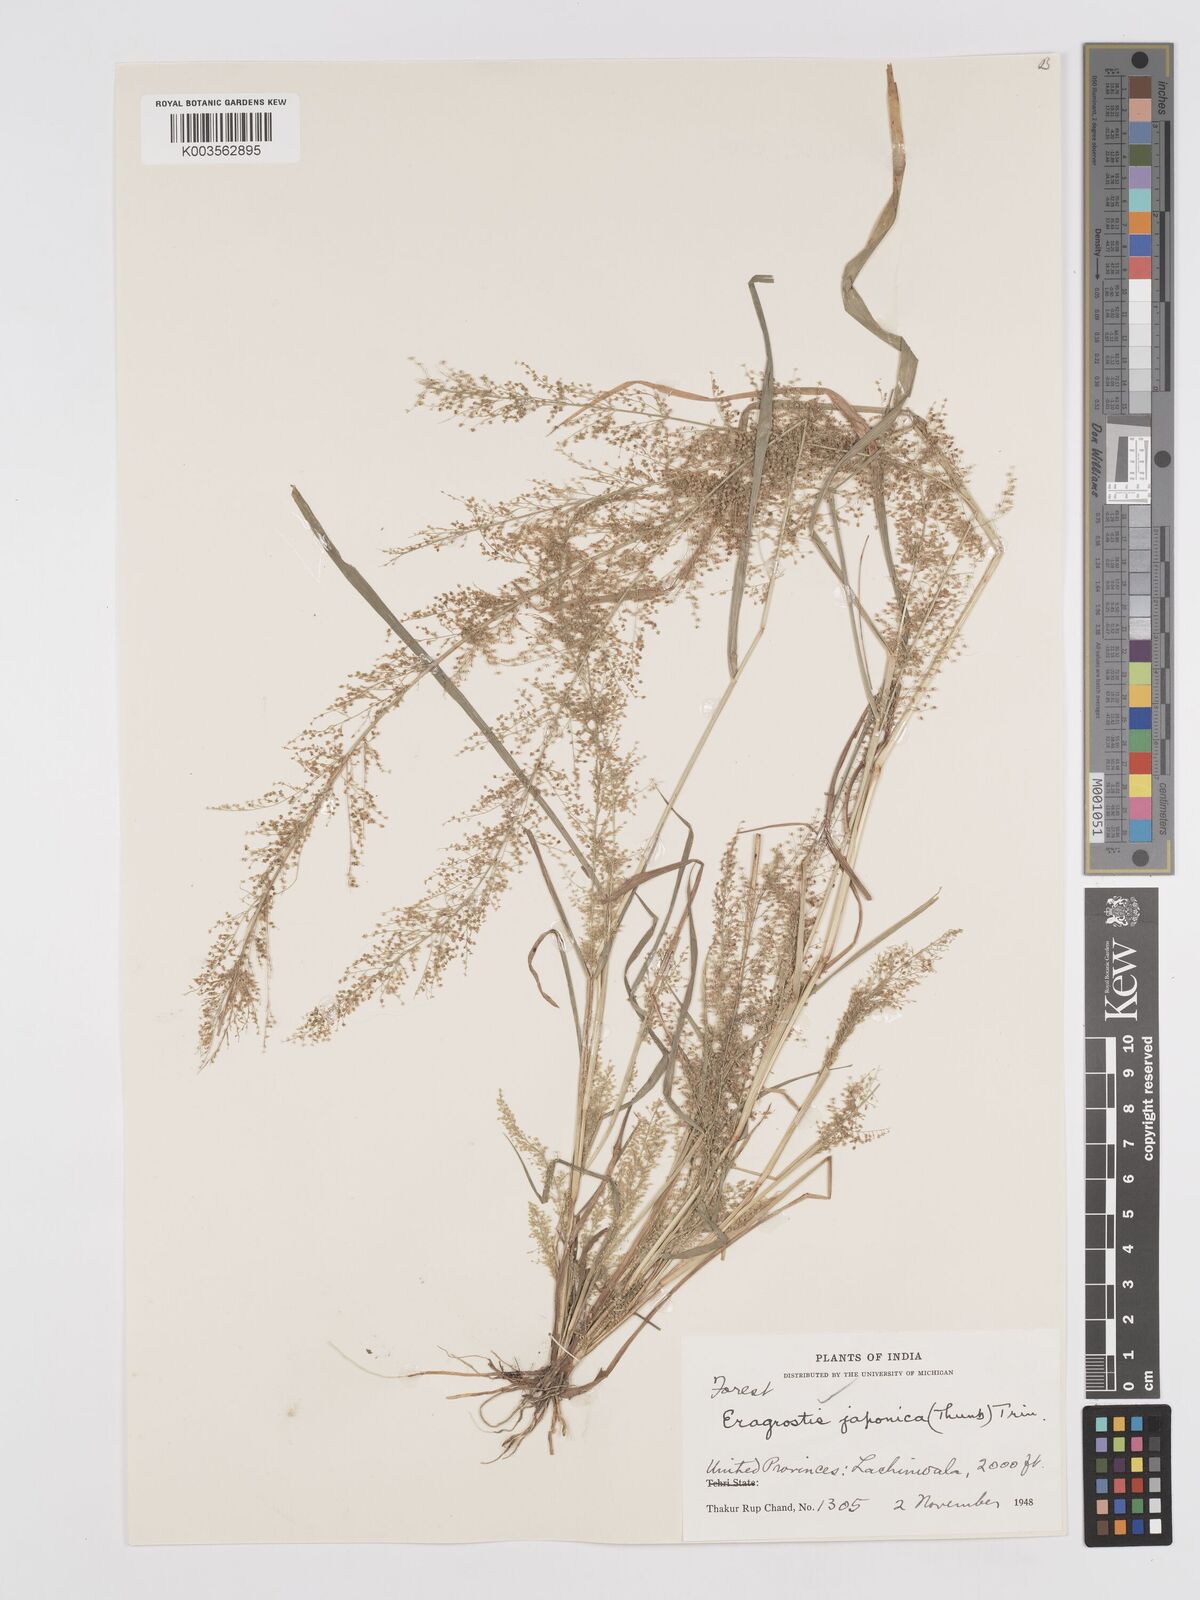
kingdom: Plantae
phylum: Tracheophyta
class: Liliopsida
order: Poales
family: Poaceae
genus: Eragrostis
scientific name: Eragrostis japonica
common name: Pond lovegrass
